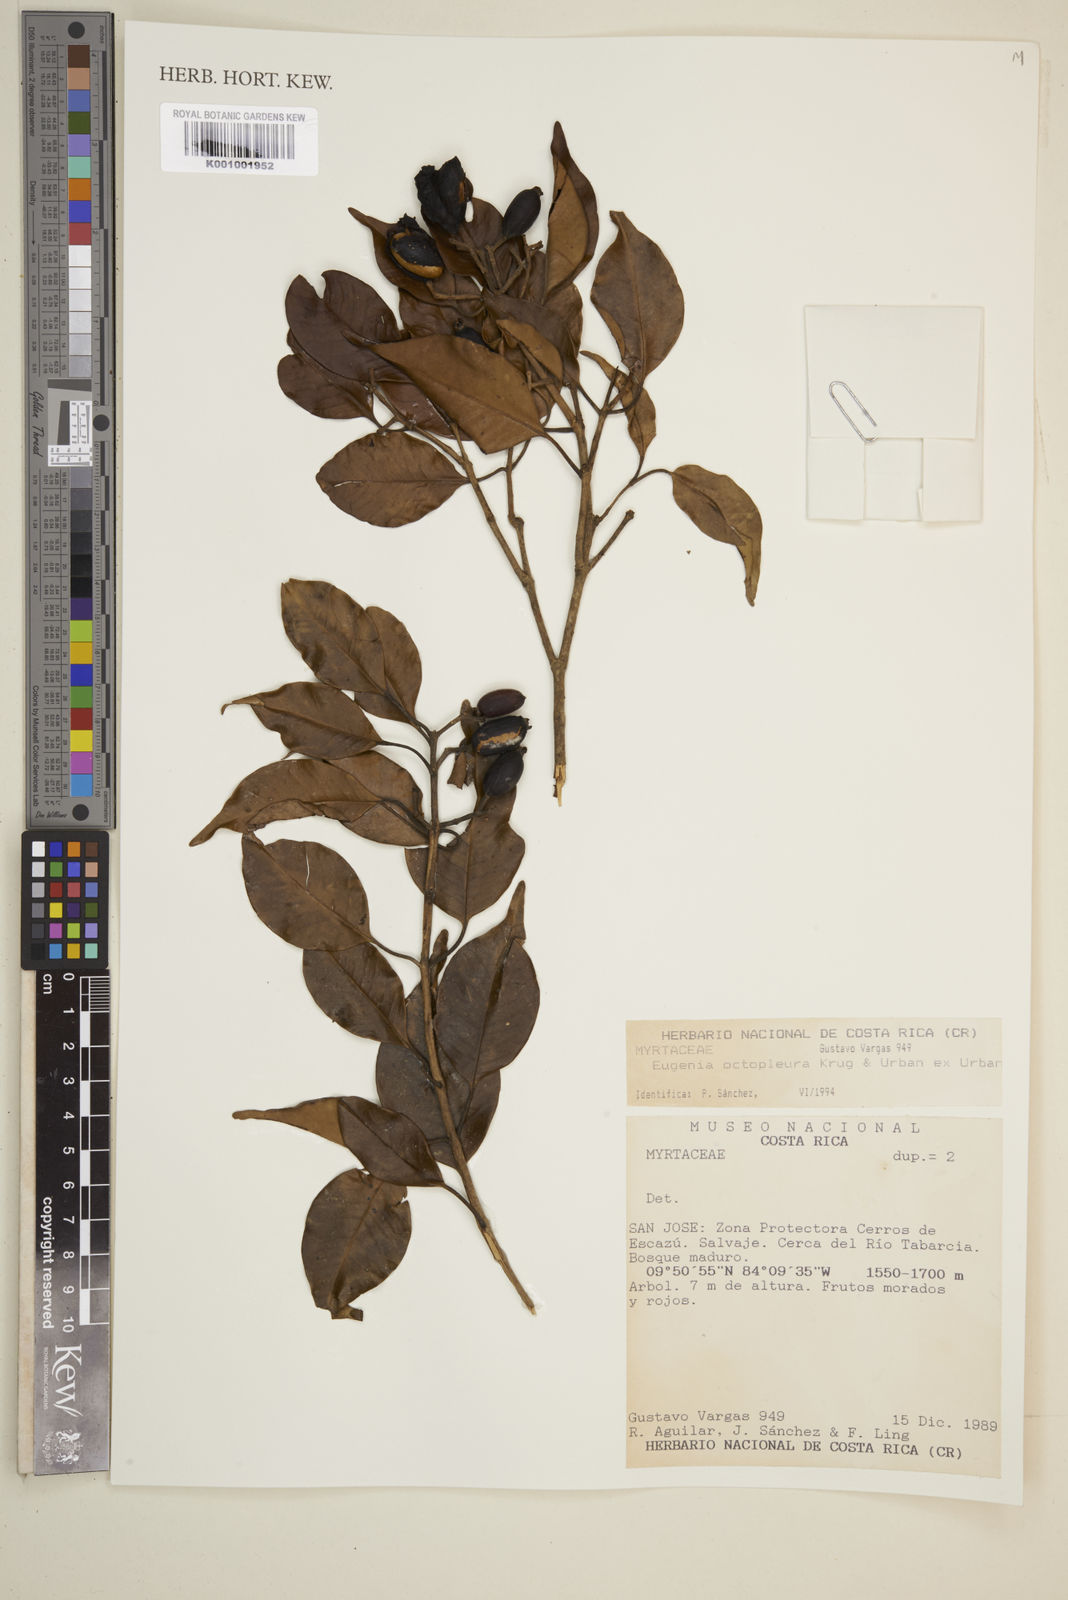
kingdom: Plantae
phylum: Tracheophyta
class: Magnoliopsida
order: Myrtales
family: Myrtaceae
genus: Eugenia
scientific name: Eugenia octopleura
